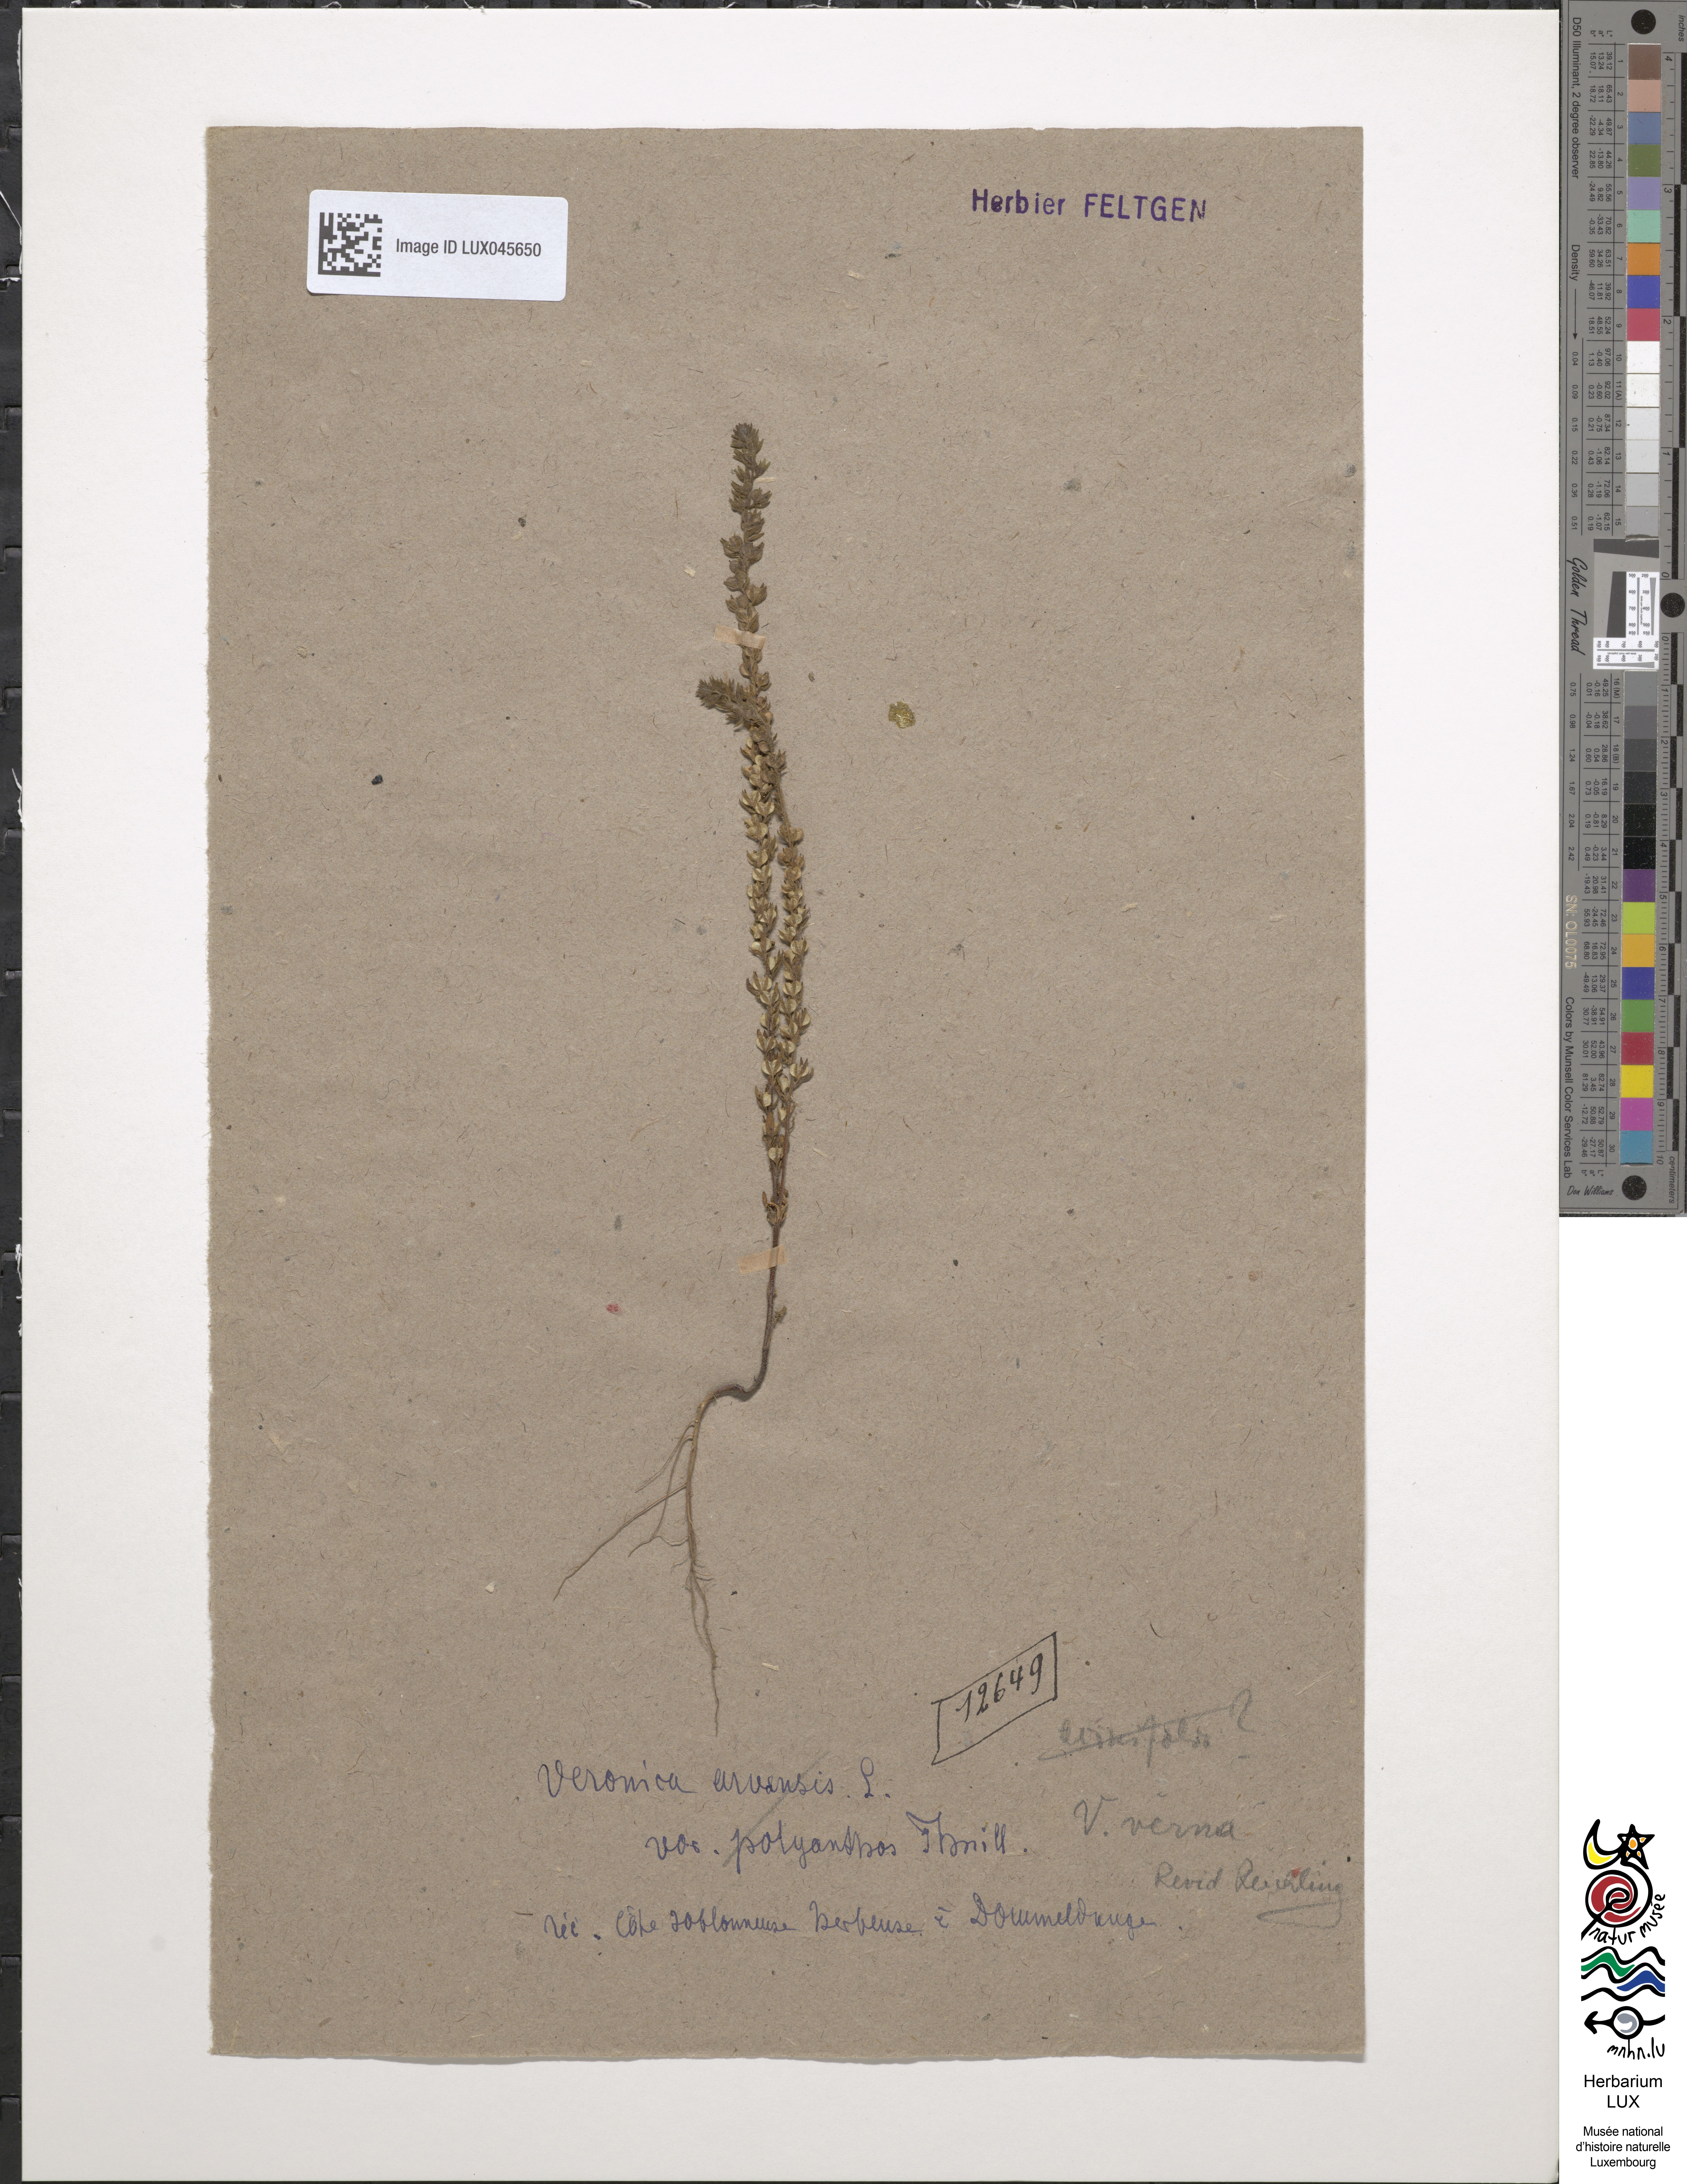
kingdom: Plantae
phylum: Tracheophyta
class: Magnoliopsida
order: Lamiales
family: Plantaginaceae
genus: Veronica
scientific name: Veronica arvensis
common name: Corn speedwell
